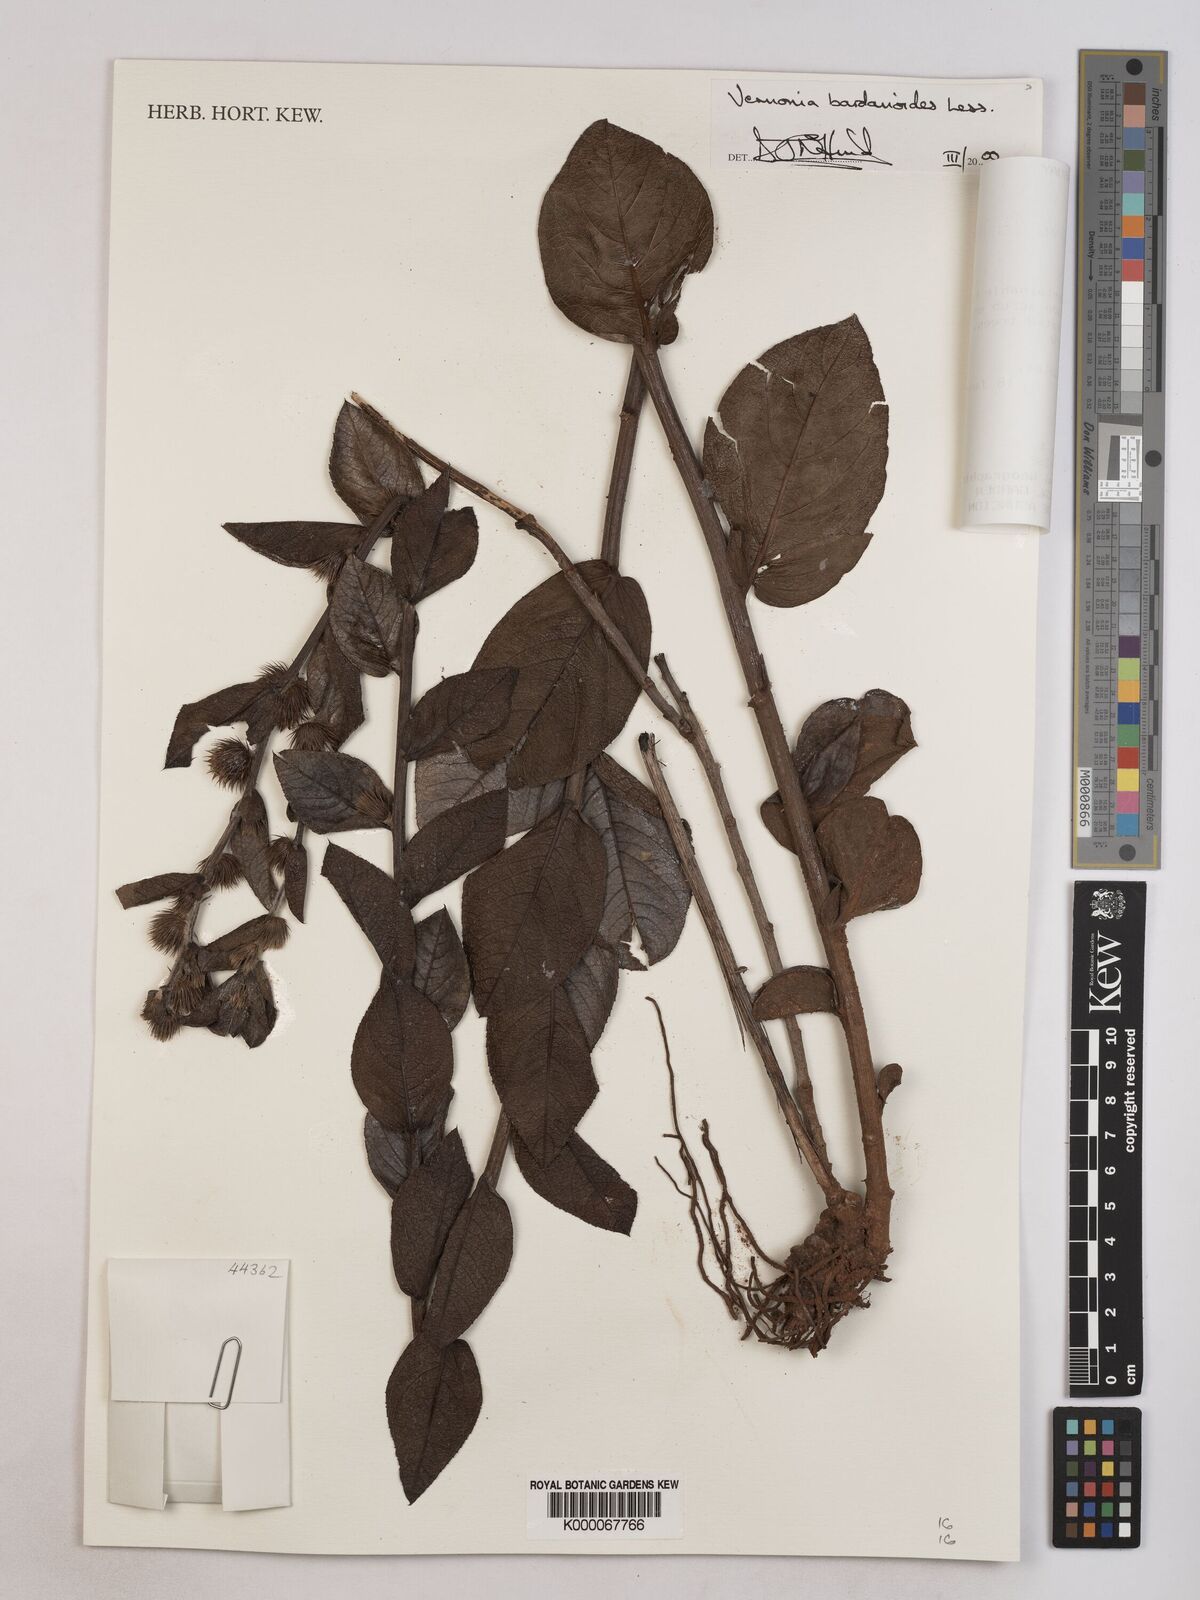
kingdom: Plantae
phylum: Tracheophyta
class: Magnoliopsida
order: Asterales
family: Asteraceae
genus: Lessingianthus
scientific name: Lessingianthus bardanioides
